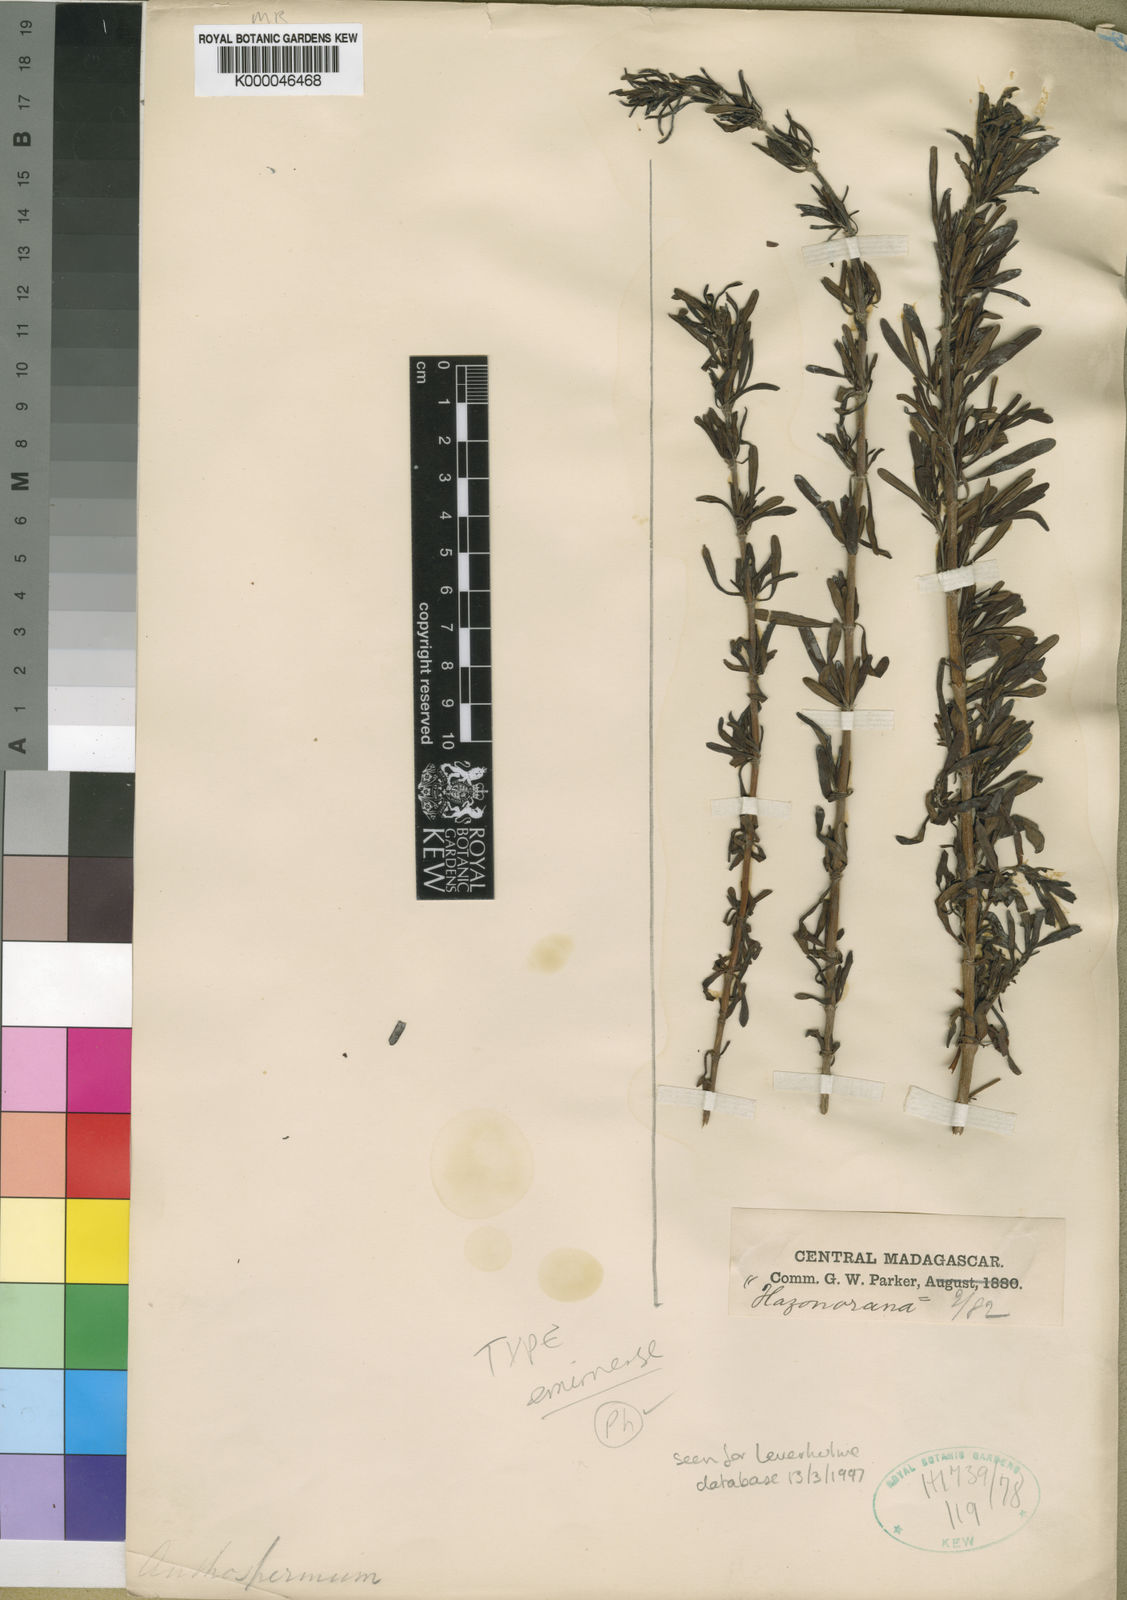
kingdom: Plantae
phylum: Tracheophyta
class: Magnoliopsida
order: Gentianales
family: Rubiaceae
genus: Anthospermum
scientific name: Anthospermum emirnense
